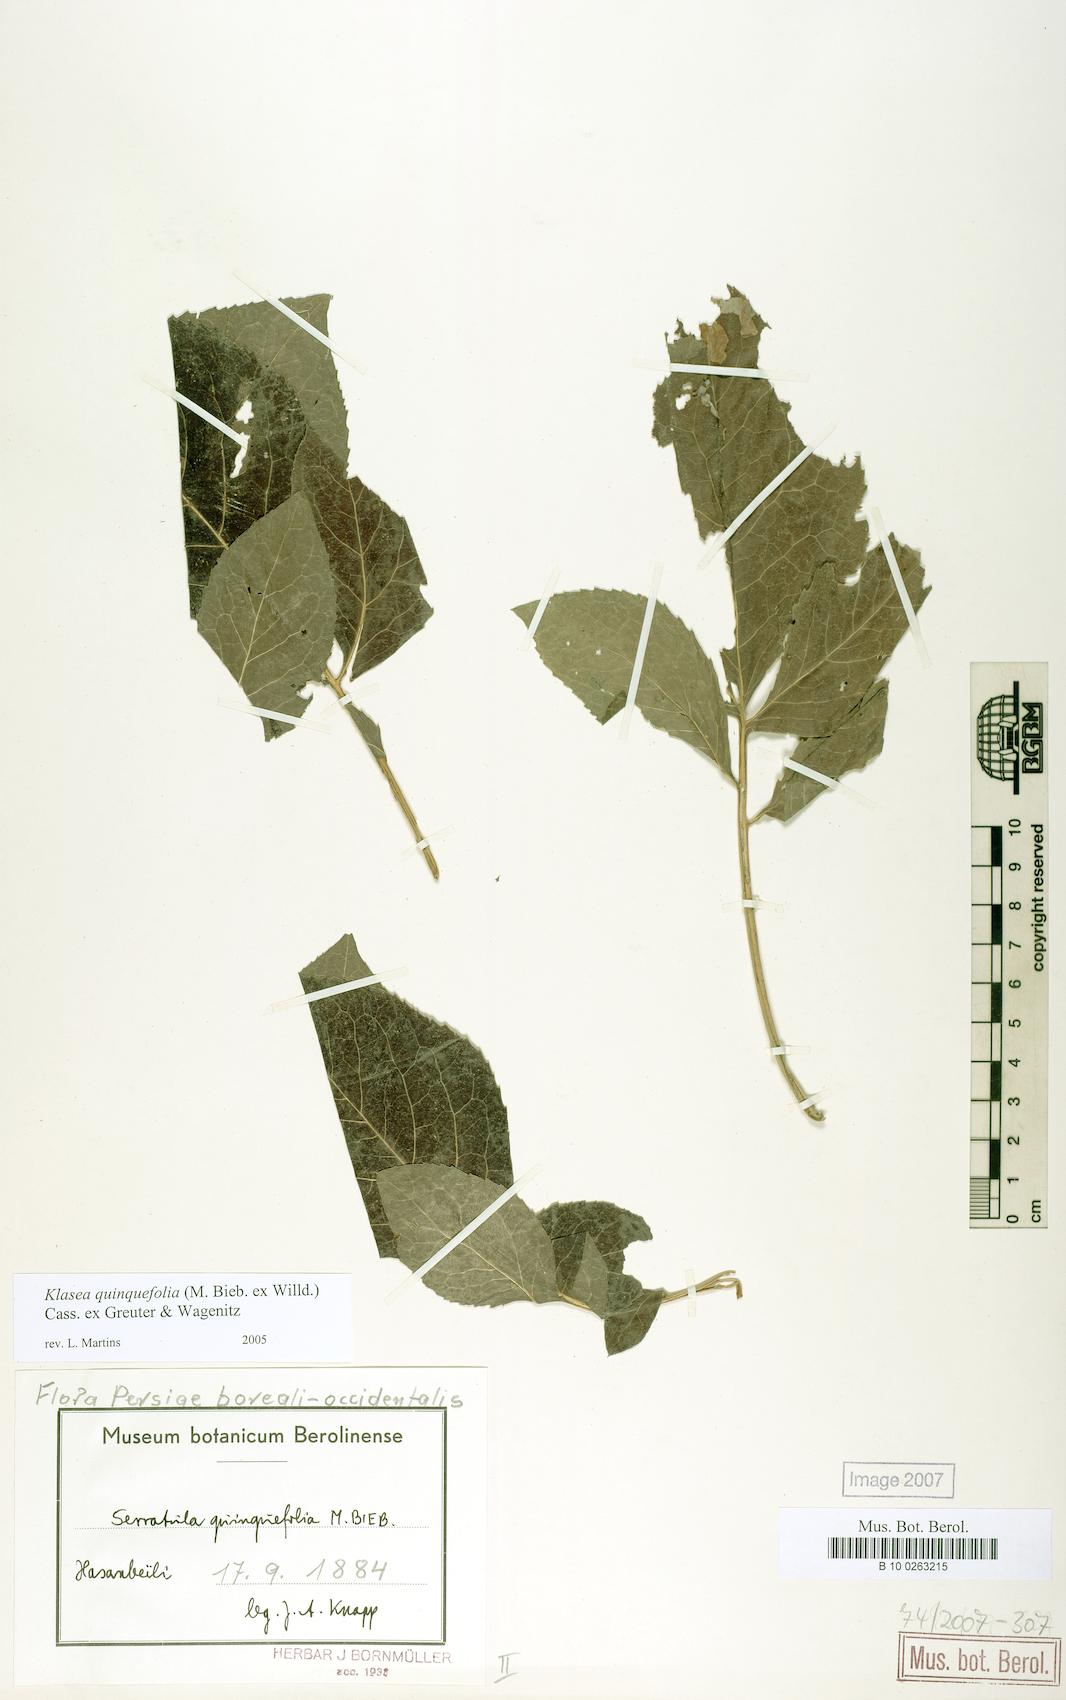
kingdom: Plantae
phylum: Tracheophyta
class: Magnoliopsida
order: Asterales
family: Asteraceae
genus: Klasea
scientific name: Klasea quinquefolia
